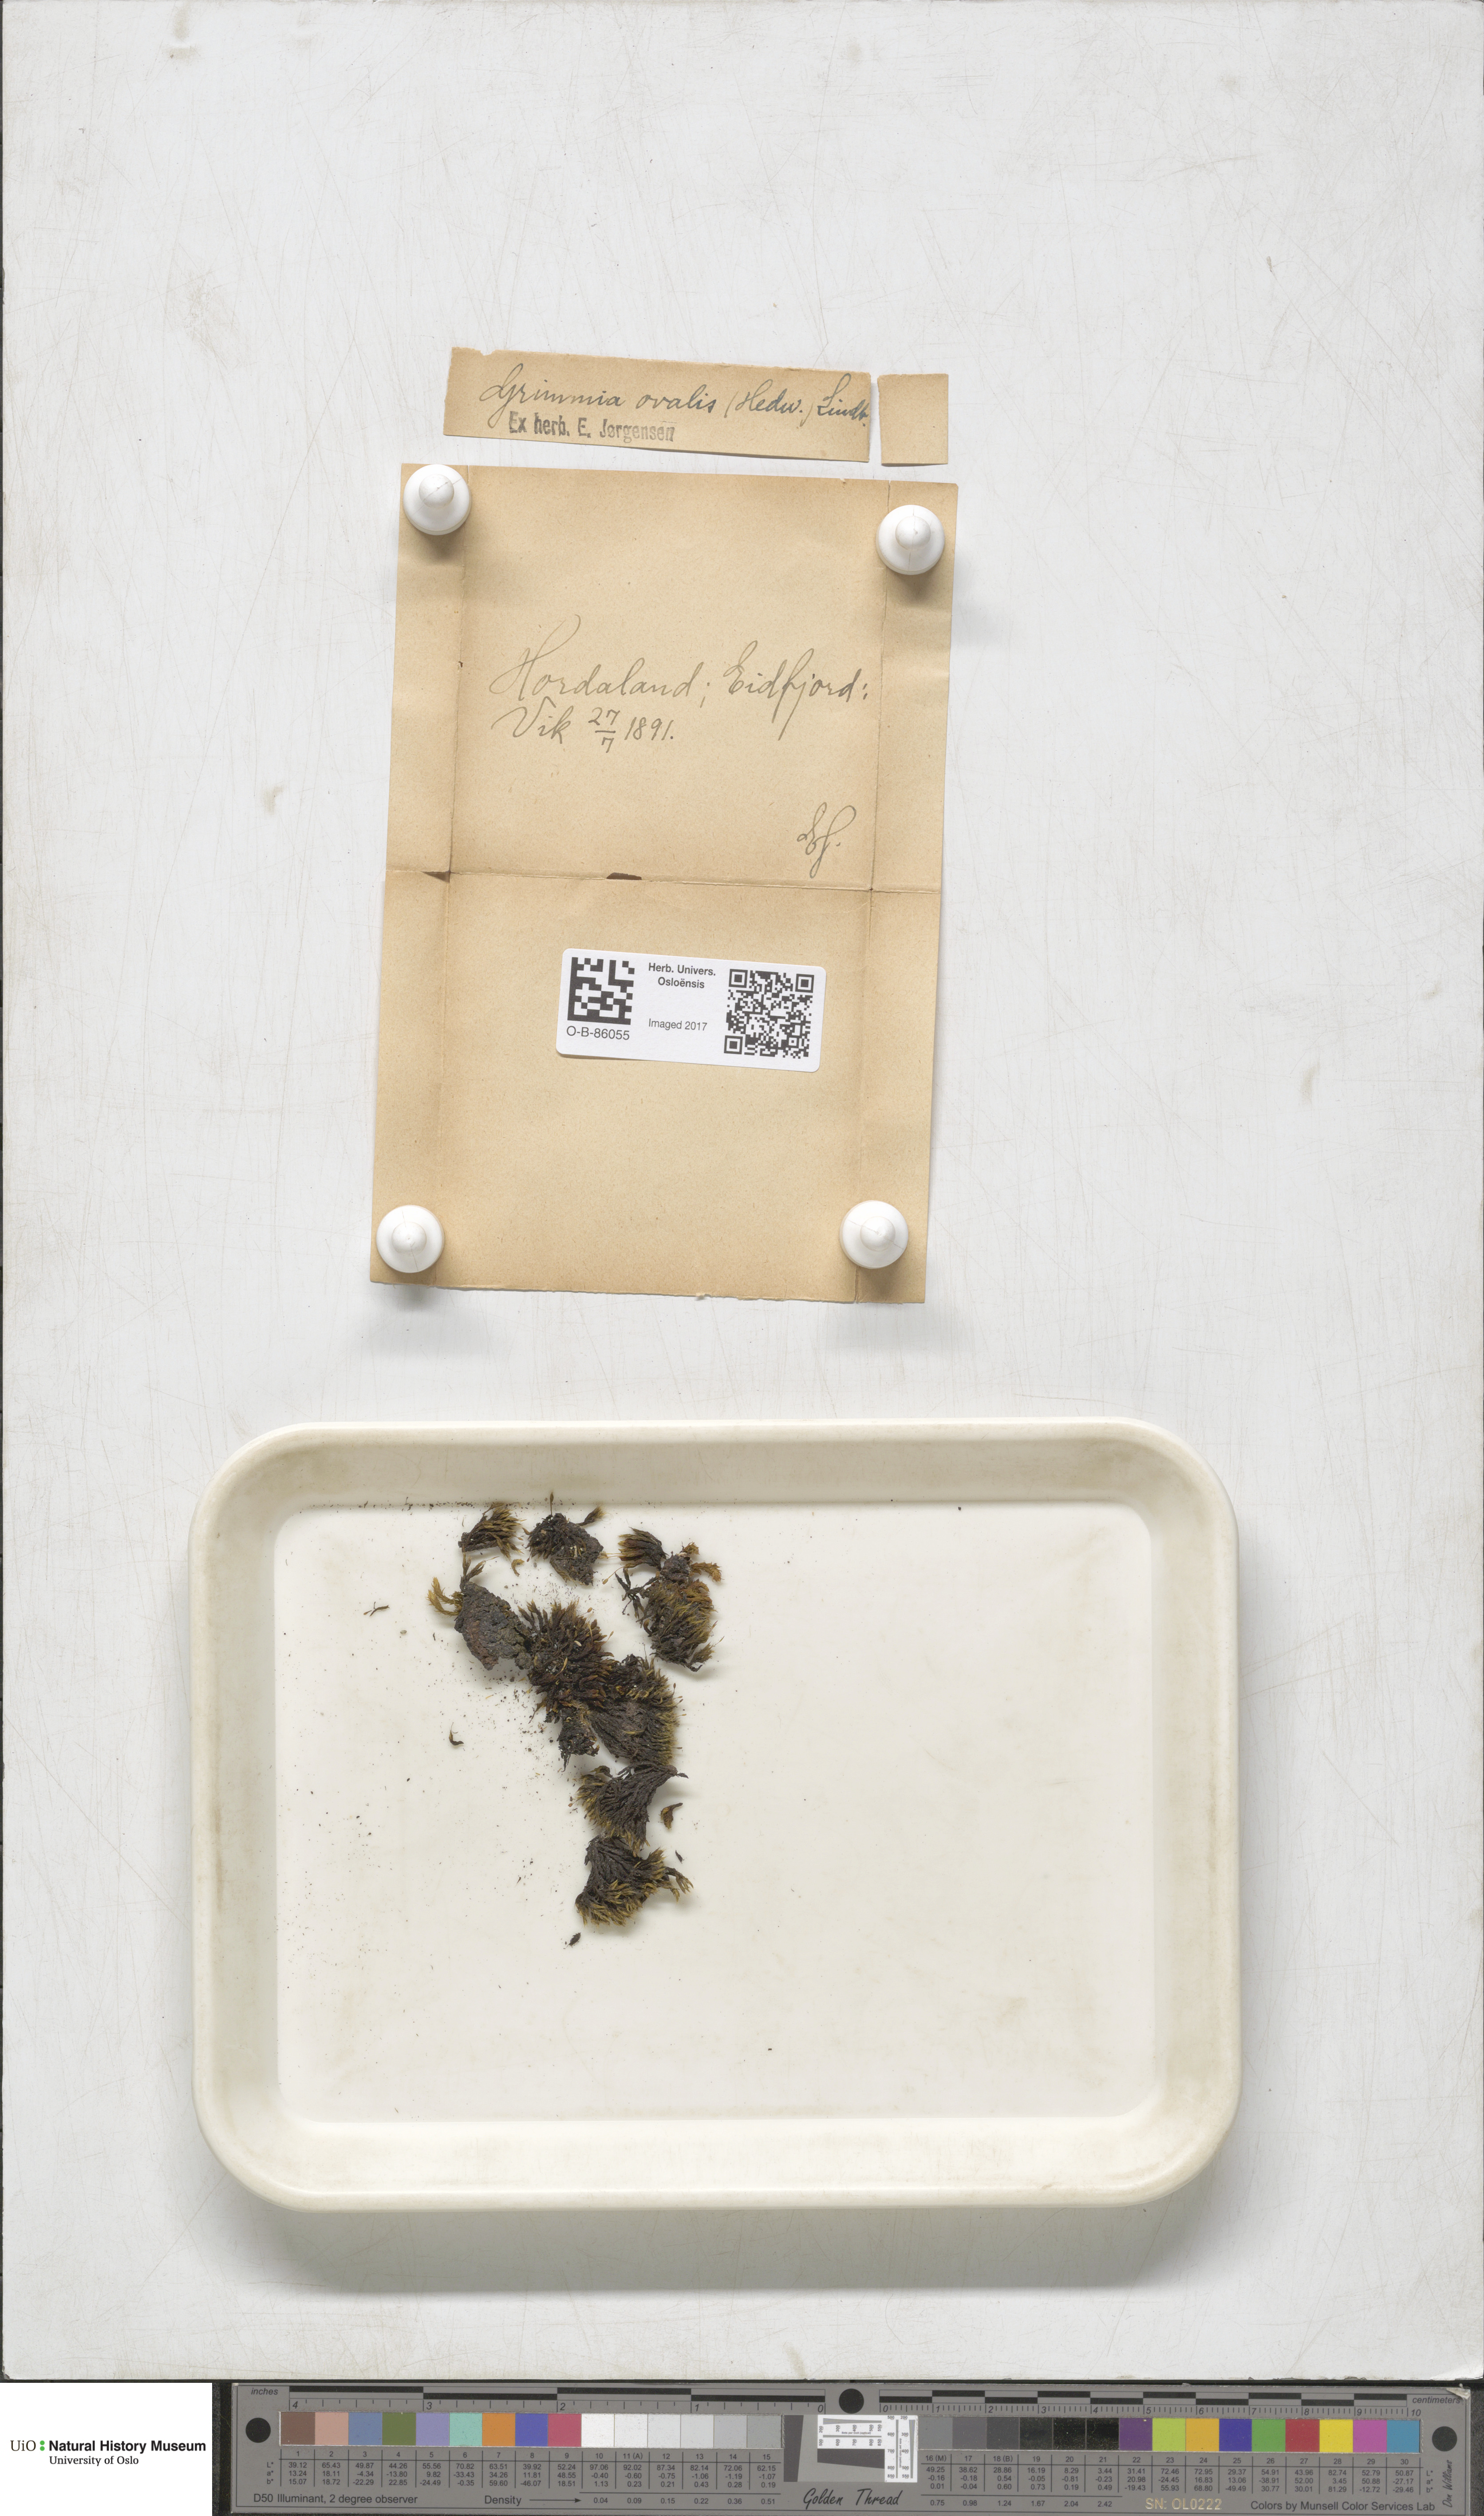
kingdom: Plantae
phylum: Bryophyta
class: Bryopsida
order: Grimmiales
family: Grimmiaceae
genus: Grimmia
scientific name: Grimmia ovalis
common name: Oval grimmia
